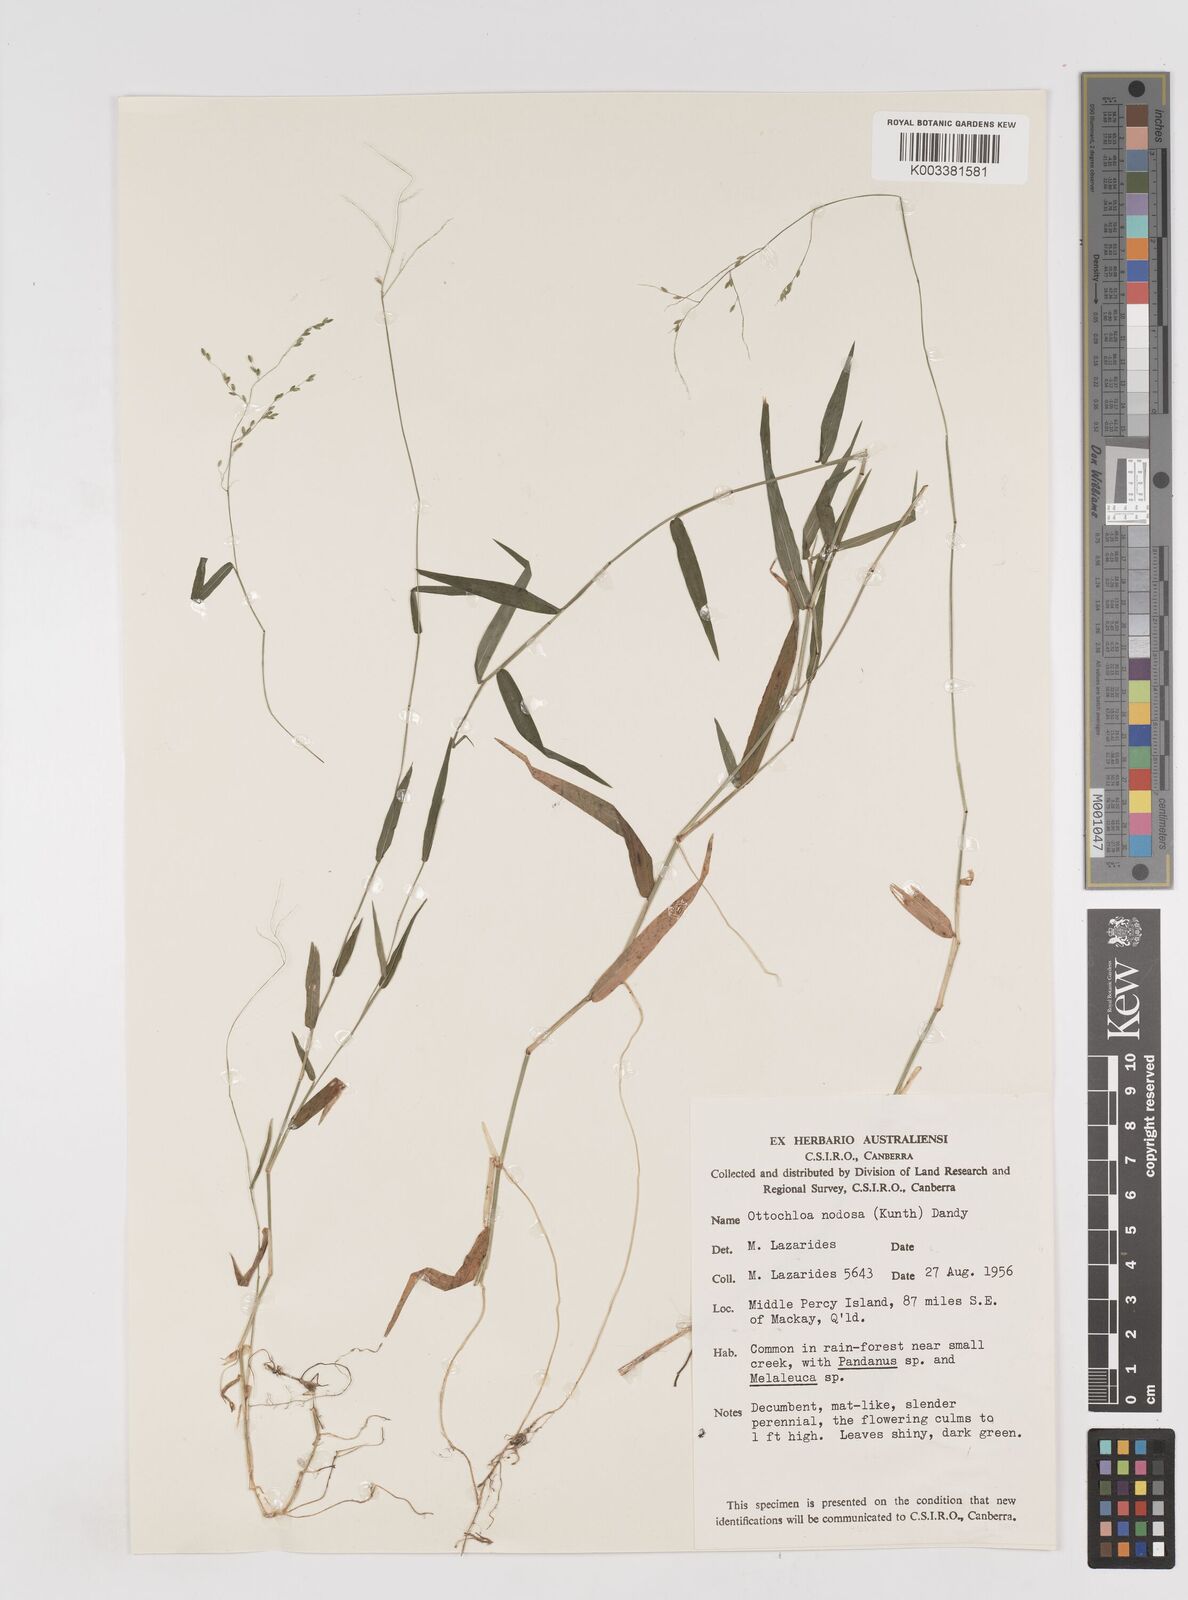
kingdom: Plantae
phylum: Tracheophyta
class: Liliopsida
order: Poales
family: Poaceae
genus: Ottochloa
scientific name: Ottochloa nodosa
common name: Slender-panic grass
